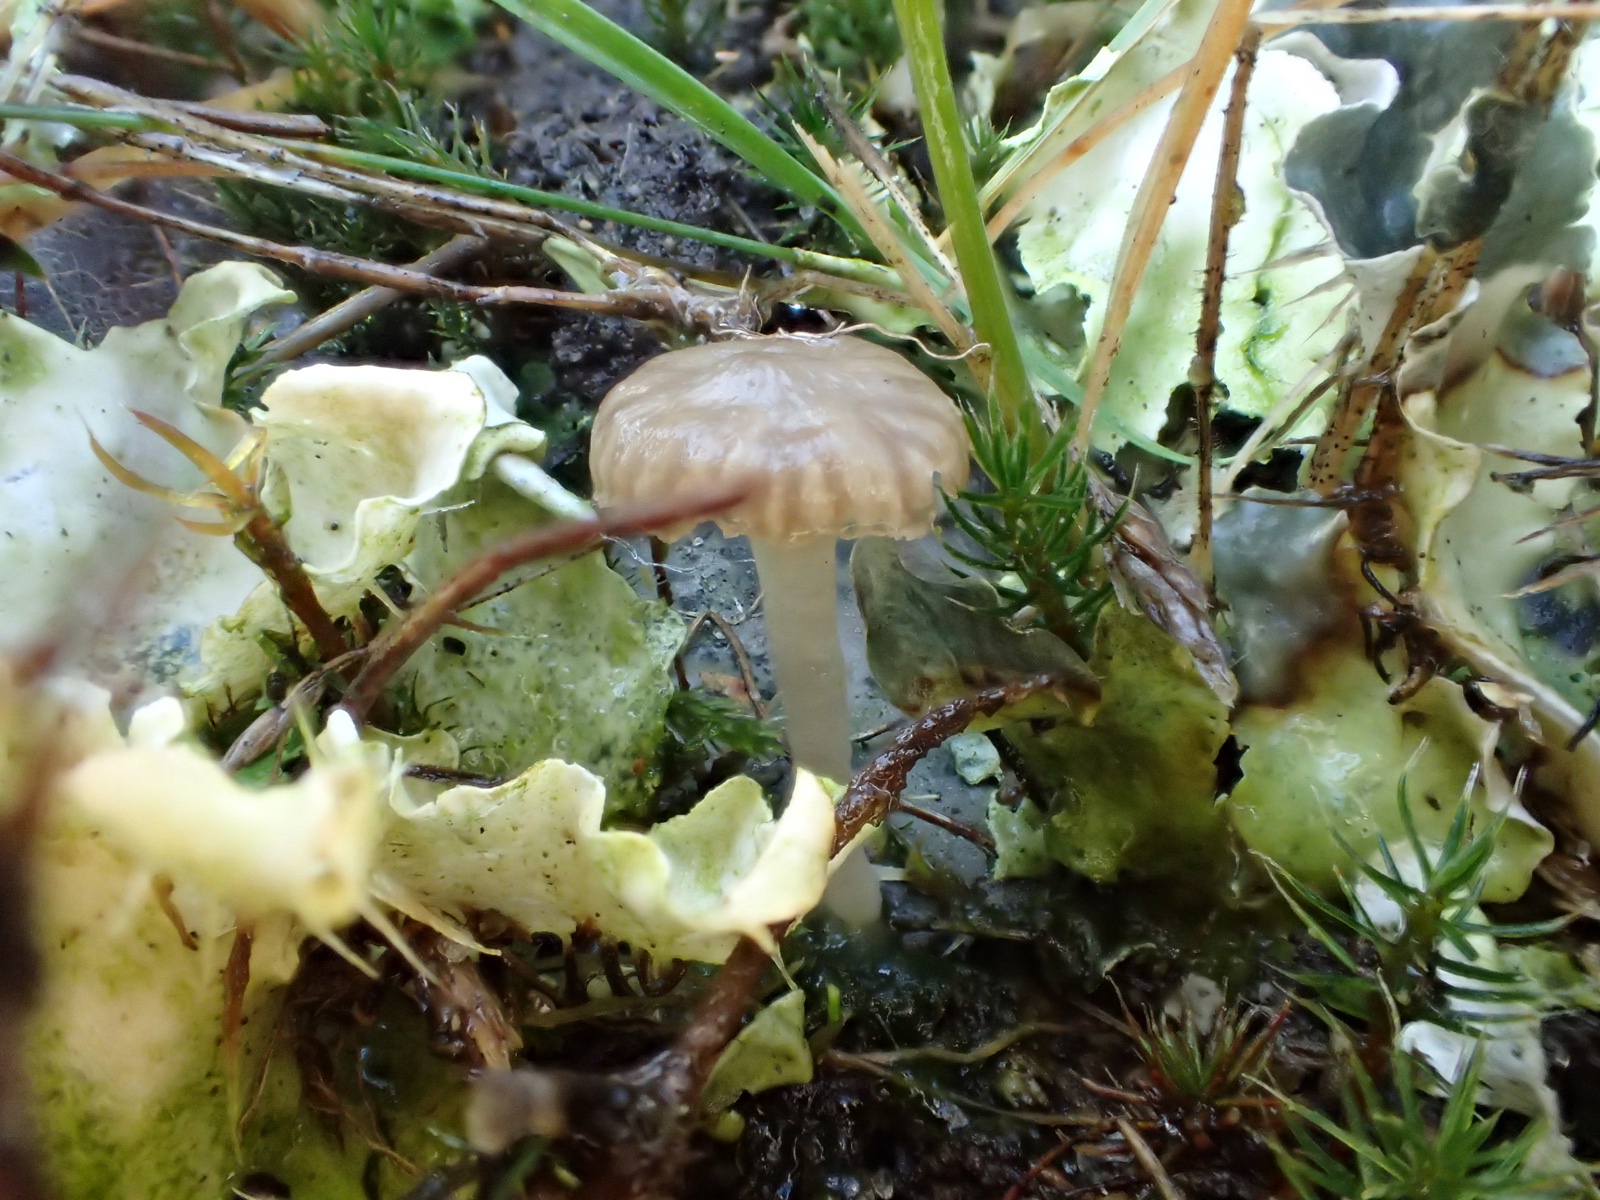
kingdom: Fungi
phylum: Basidiomycota
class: Agaricomycetes
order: Agaricales
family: Hygrophoraceae
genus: Arrhenia
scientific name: Arrhenia peltigerina
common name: skjoldlav-fontænehat
